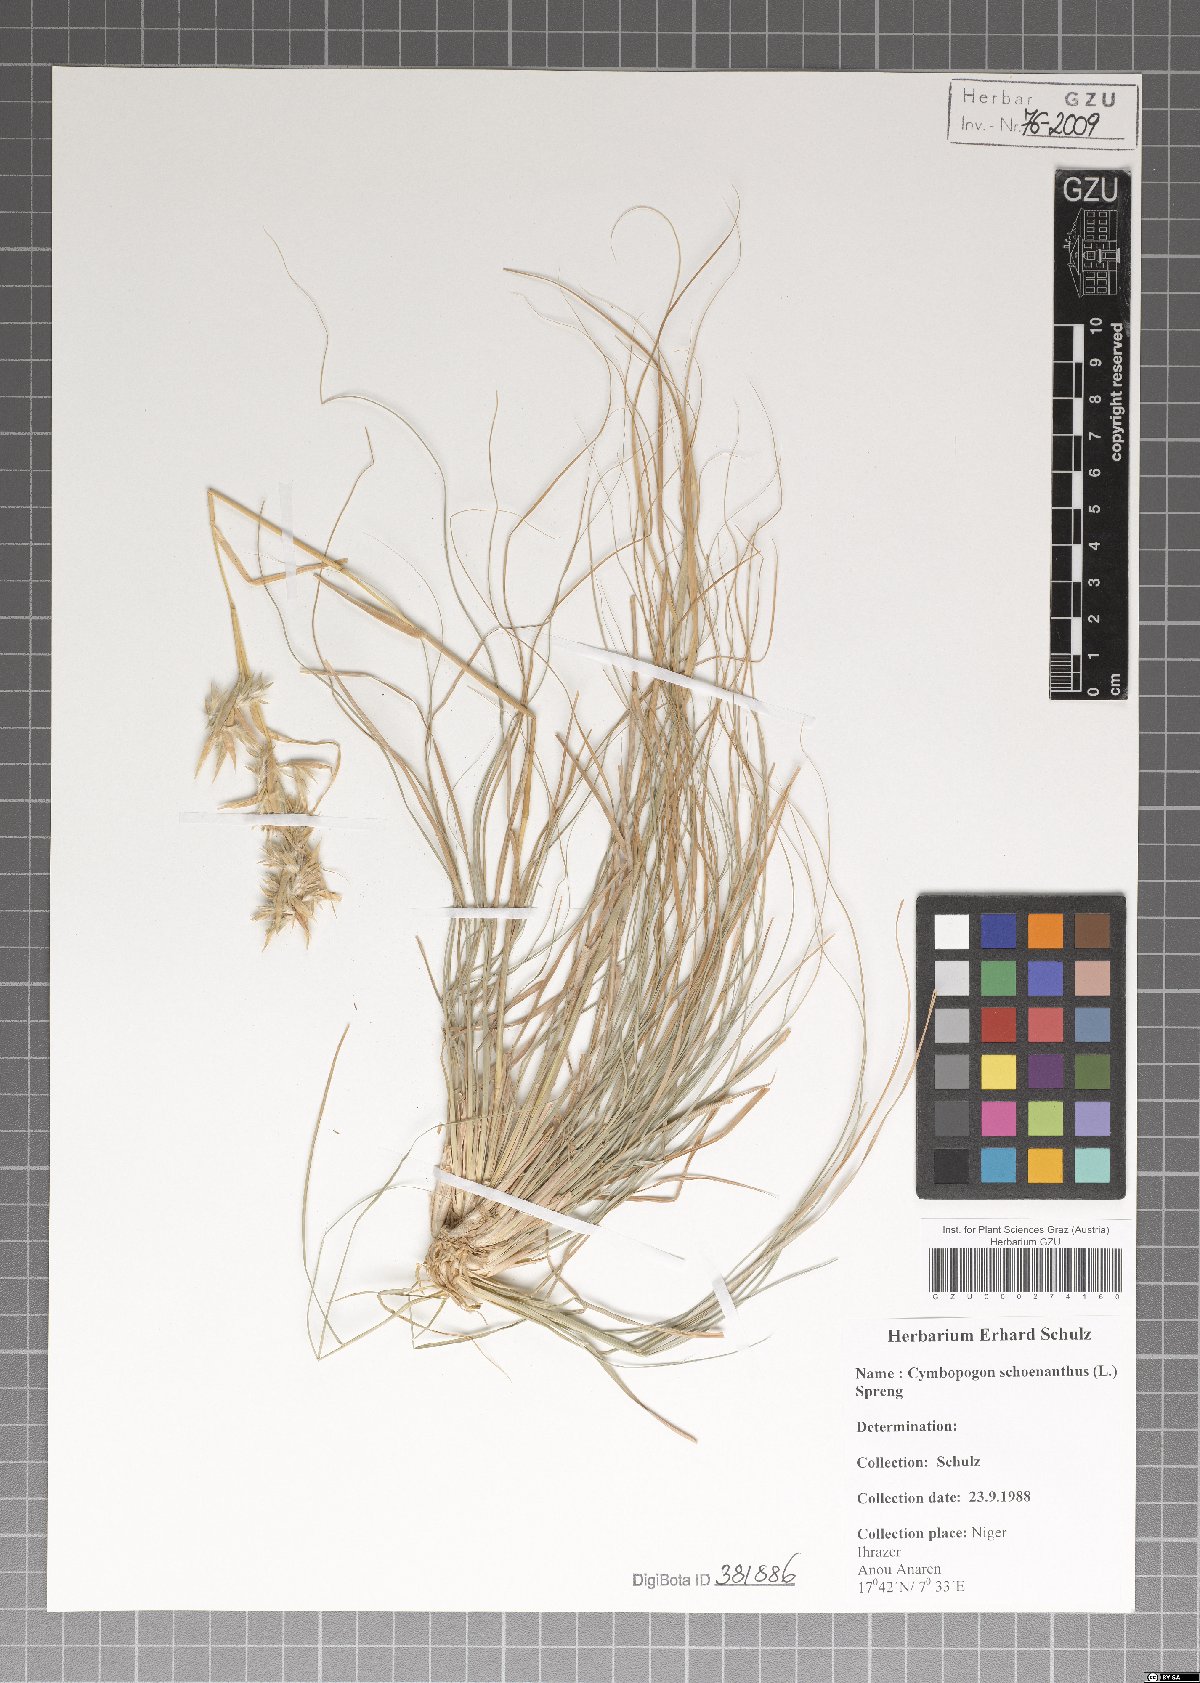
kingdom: Plantae
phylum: Tracheophyta
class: Liliopsida
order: Poales
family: Poaceae
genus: Cymbopogon
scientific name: Cymbopogon schoenanthus
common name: Geranium grass
